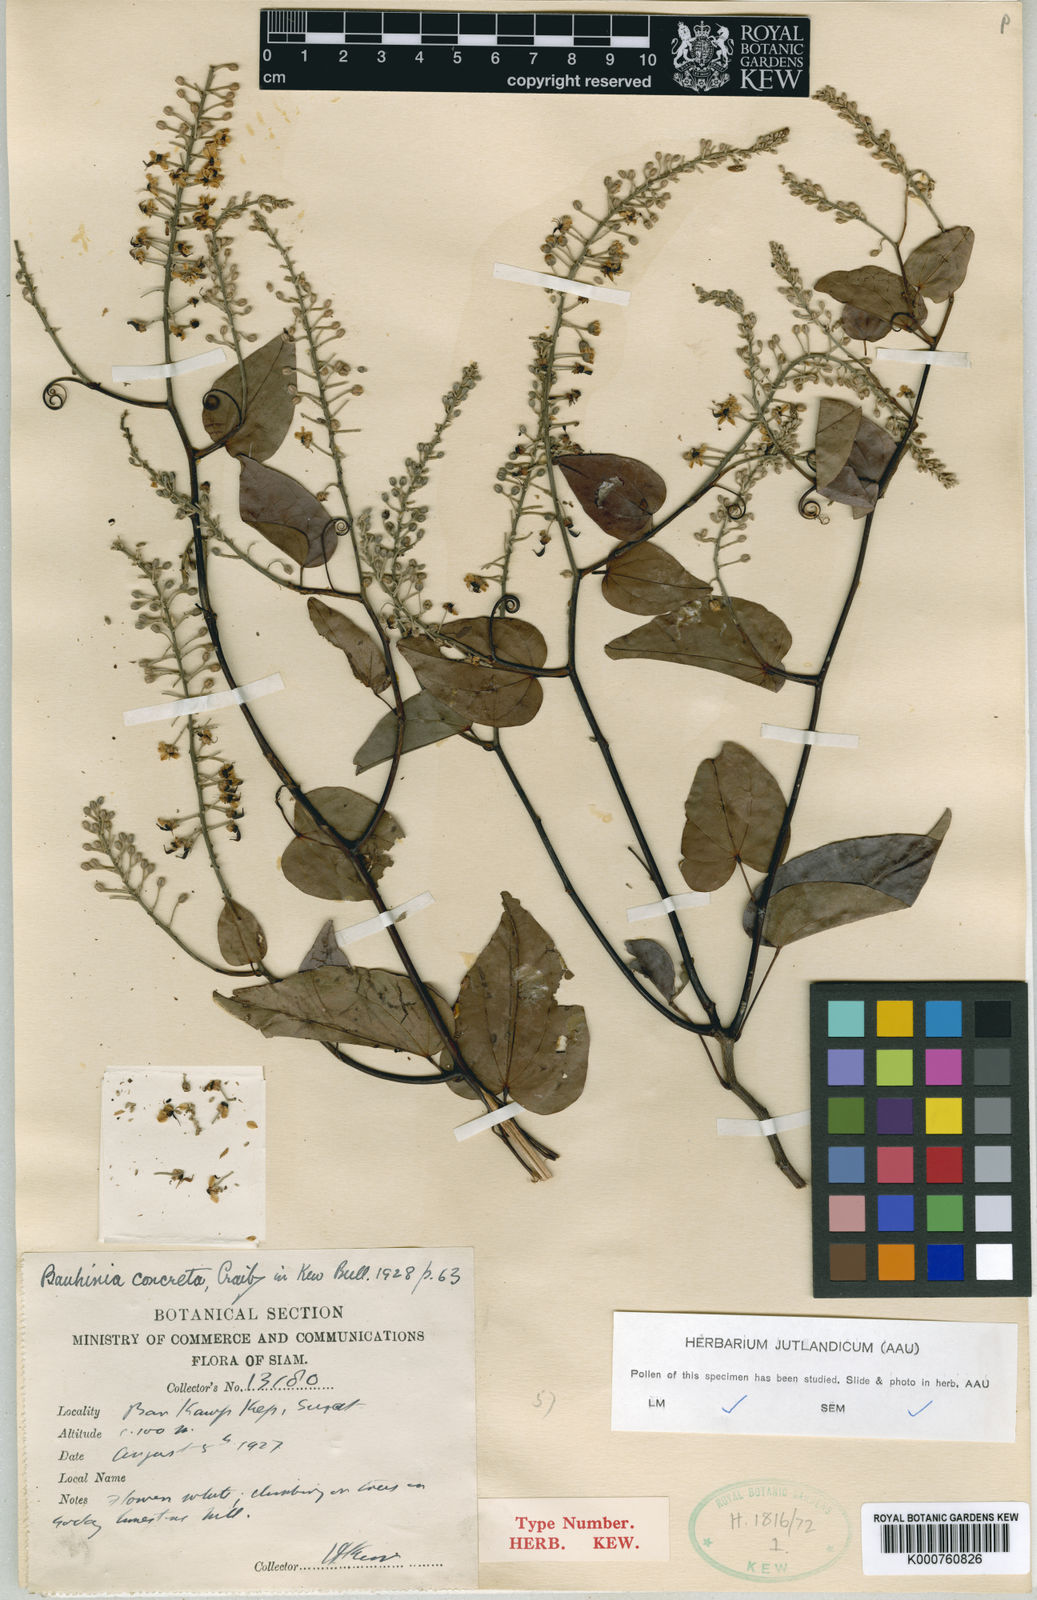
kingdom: Plantae
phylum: Tracheophyta
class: Magnoliopsida
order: Fabales
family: Fabaceae
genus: Phanera
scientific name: Phanera concreta
